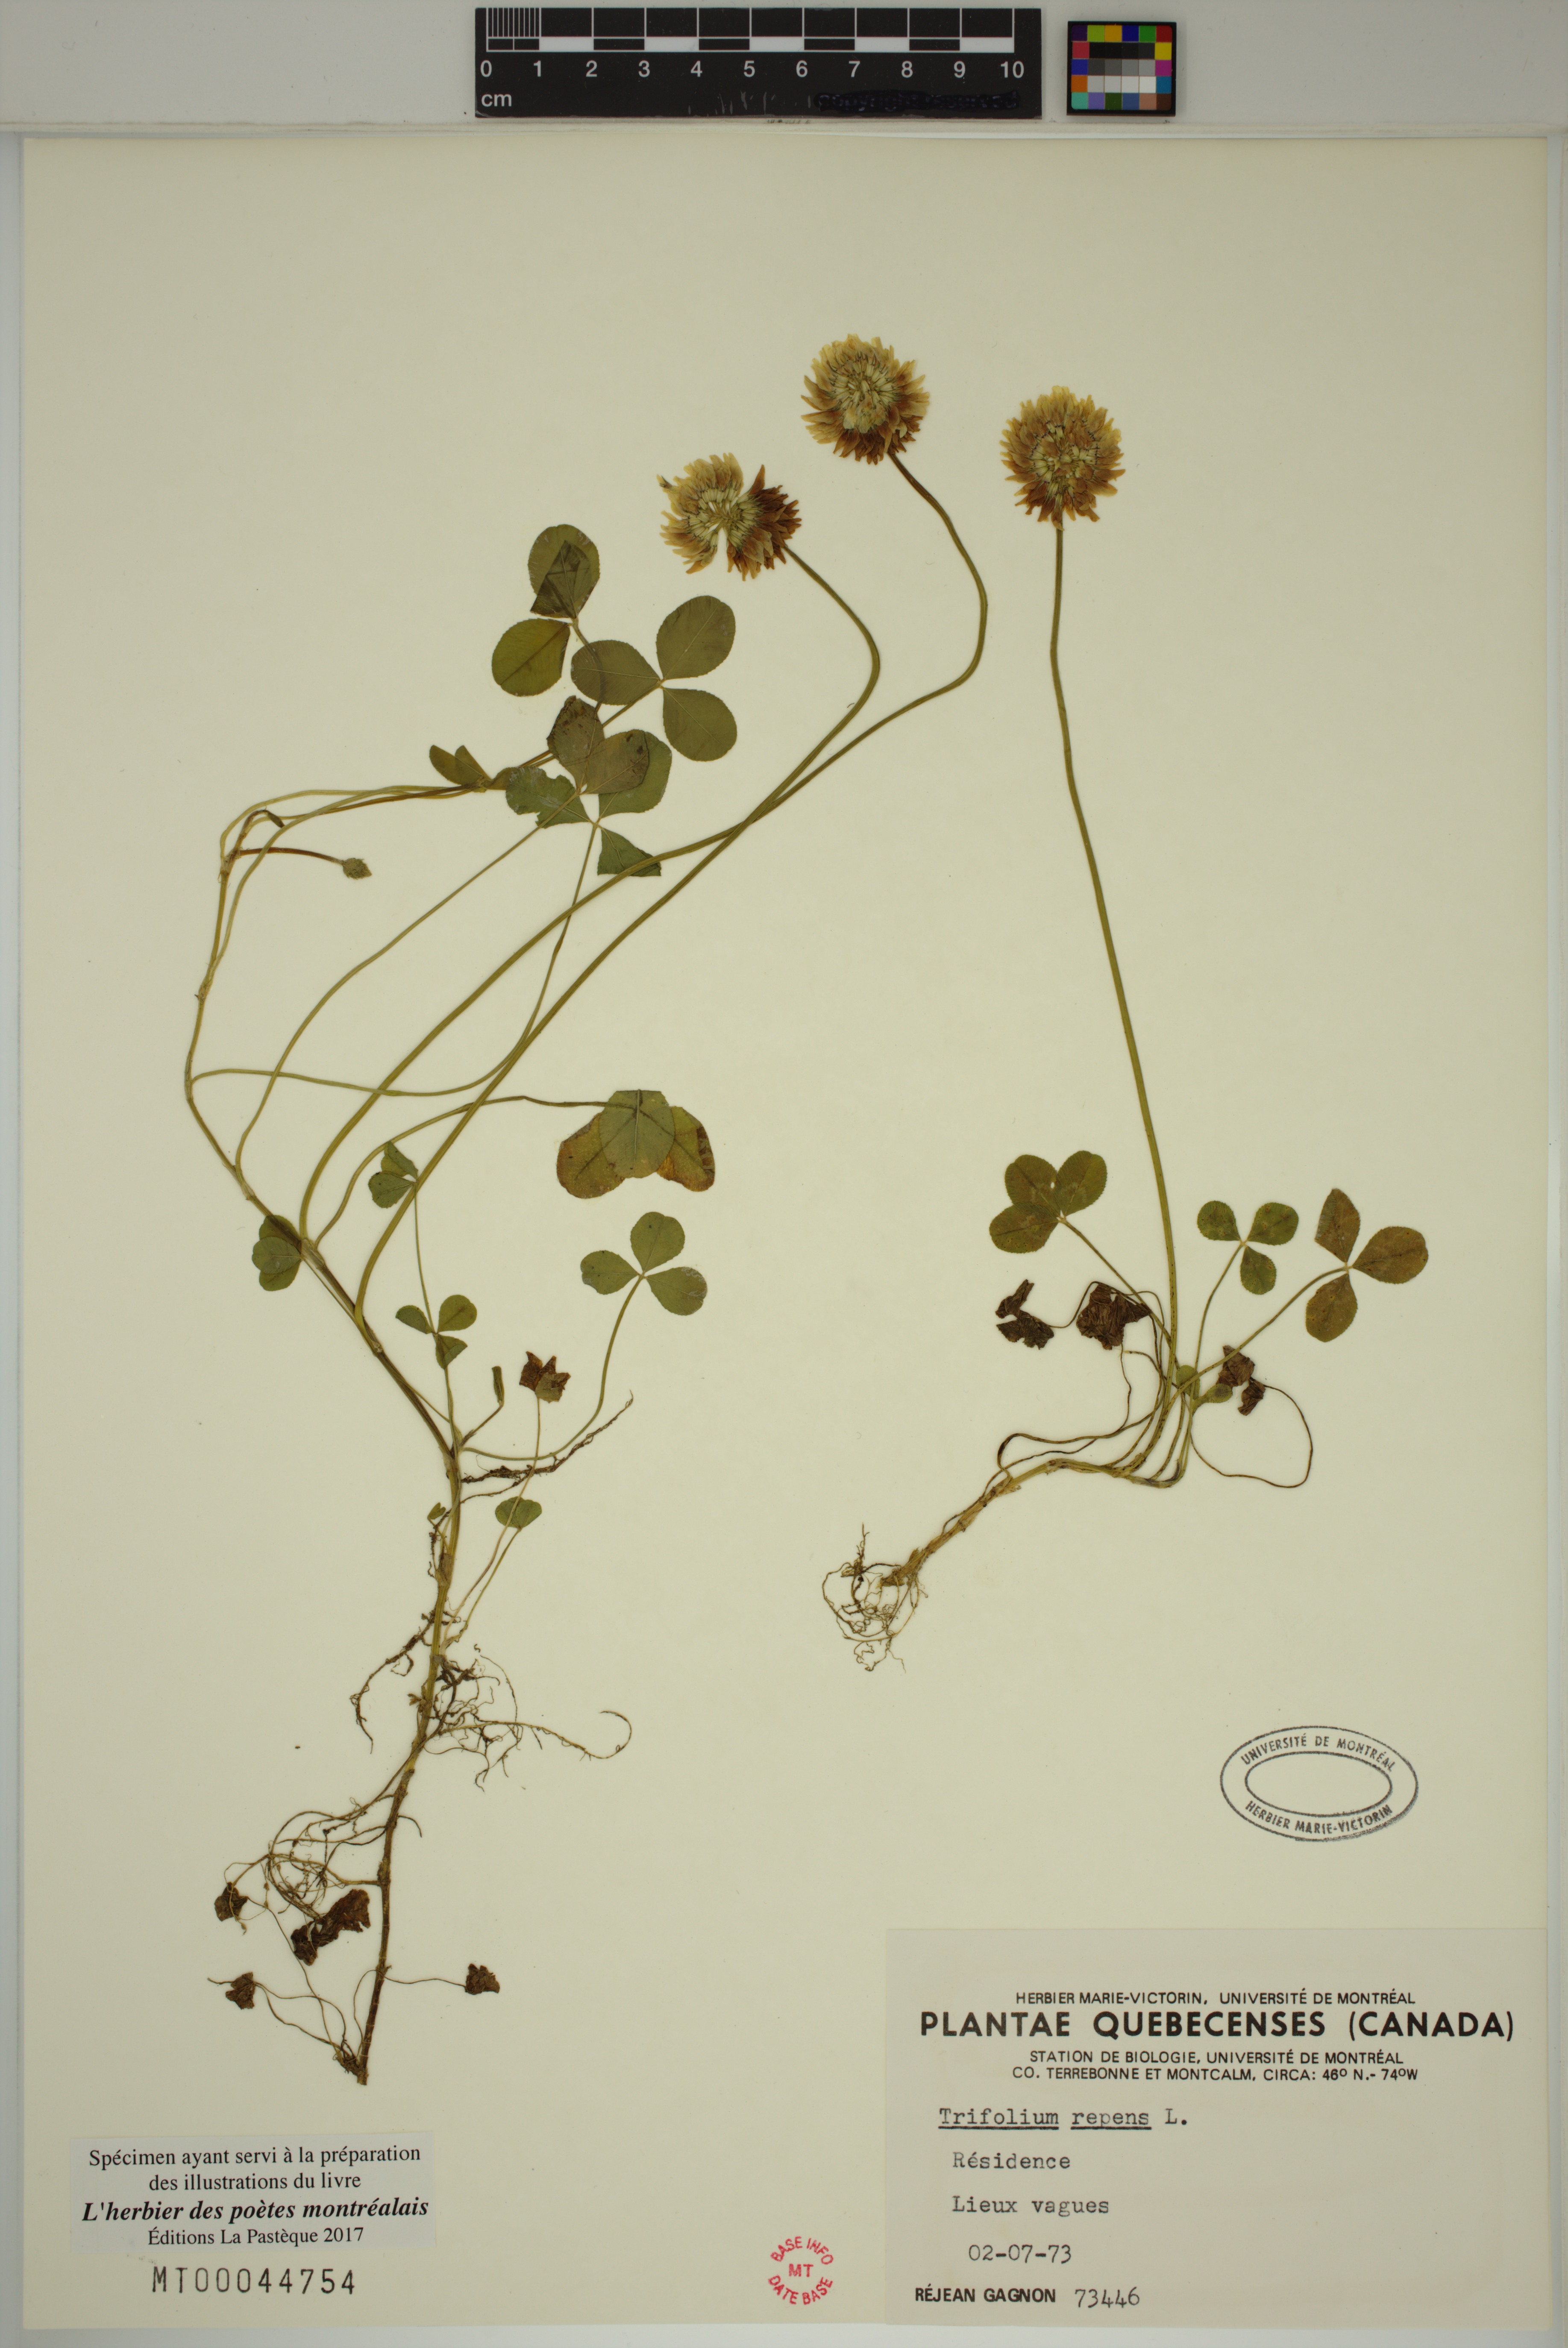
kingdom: Plantae
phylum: Tracheophyta
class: Magnoliopsida
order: Fabales
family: Fabaceae
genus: Trifolium
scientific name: Trifolium repens
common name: White clover
